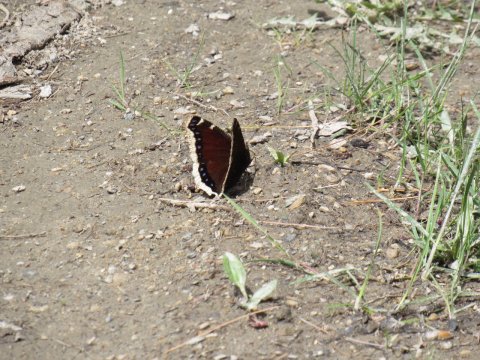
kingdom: Animalia
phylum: Arthropoda
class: Insecta
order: Lepidoptera
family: Nymphalidae
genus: Nymphalis
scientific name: Nymphalis antiopa
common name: Mourning Cloak
